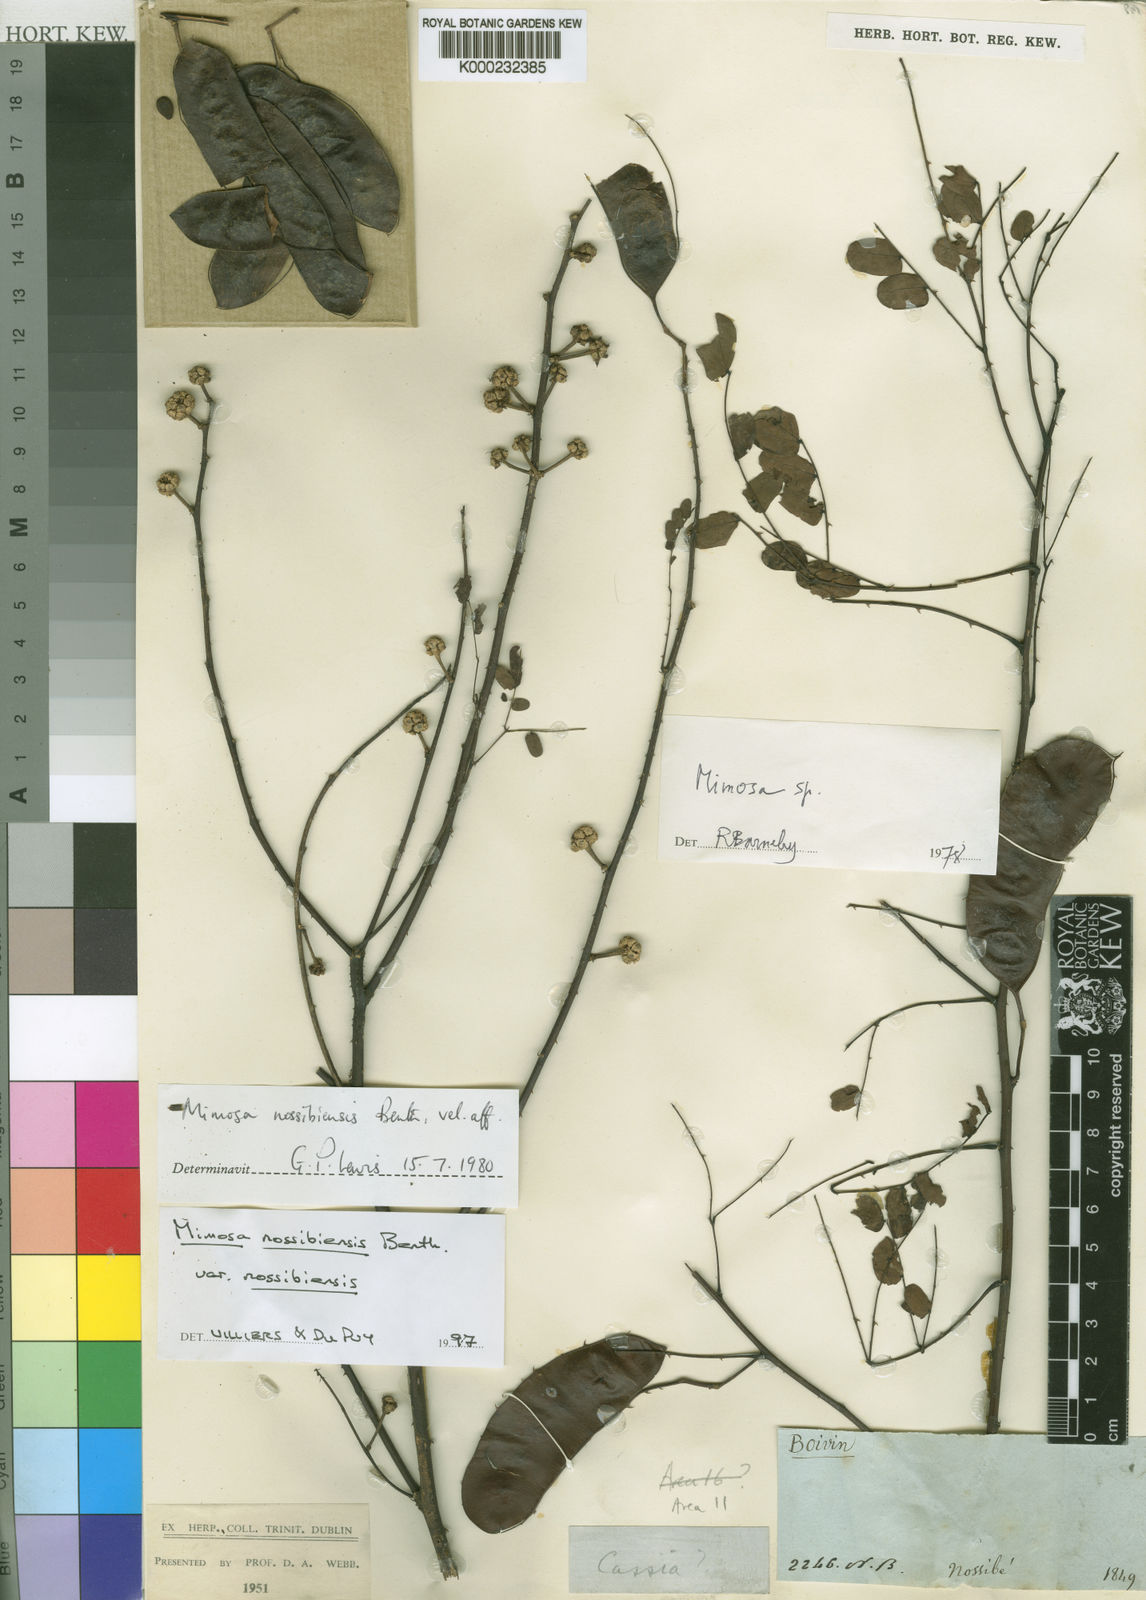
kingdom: Plantae
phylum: Tracheophyta
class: Magnoliopsida
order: Fabales
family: Fabaceae
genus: Mimosa
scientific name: Mimosa nossibiensis
